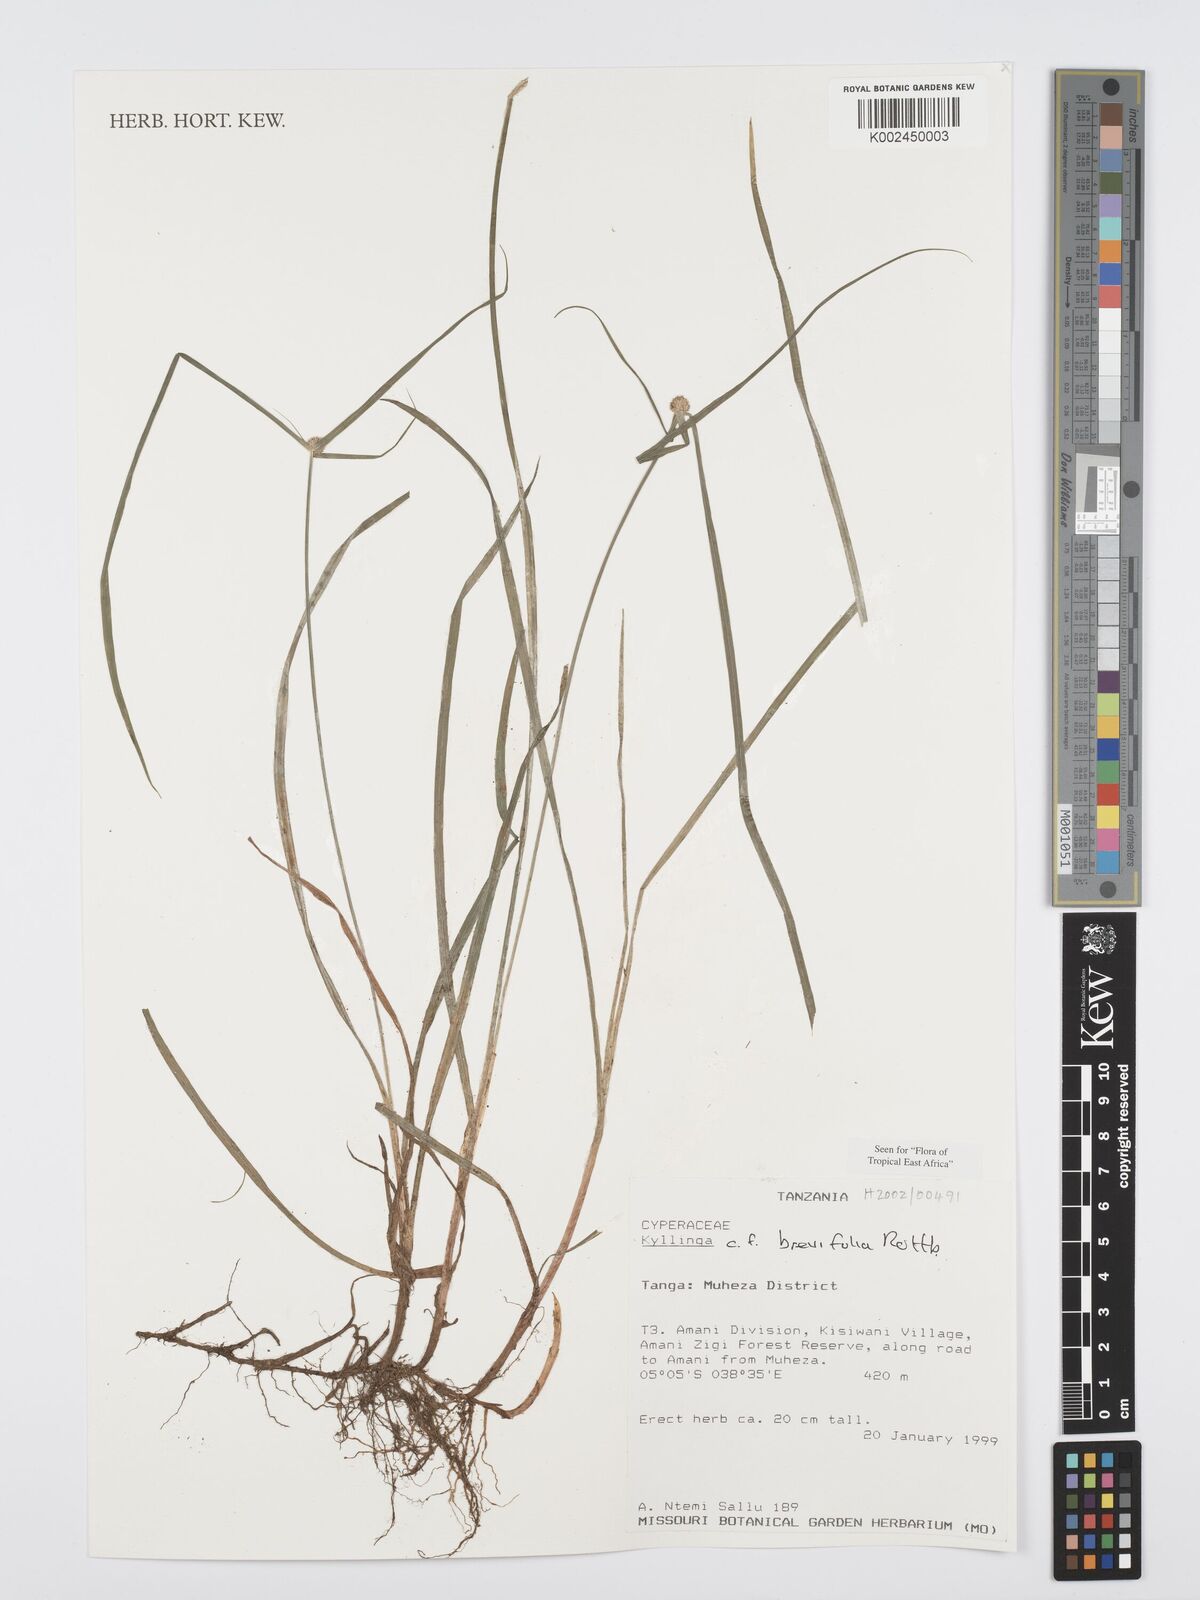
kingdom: Plantae
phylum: Tracheophyta
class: Liliopsida
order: Poales
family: Cyperaceae
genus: Cyperus
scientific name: Cyperus brevifolius
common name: Globe kyllinga
